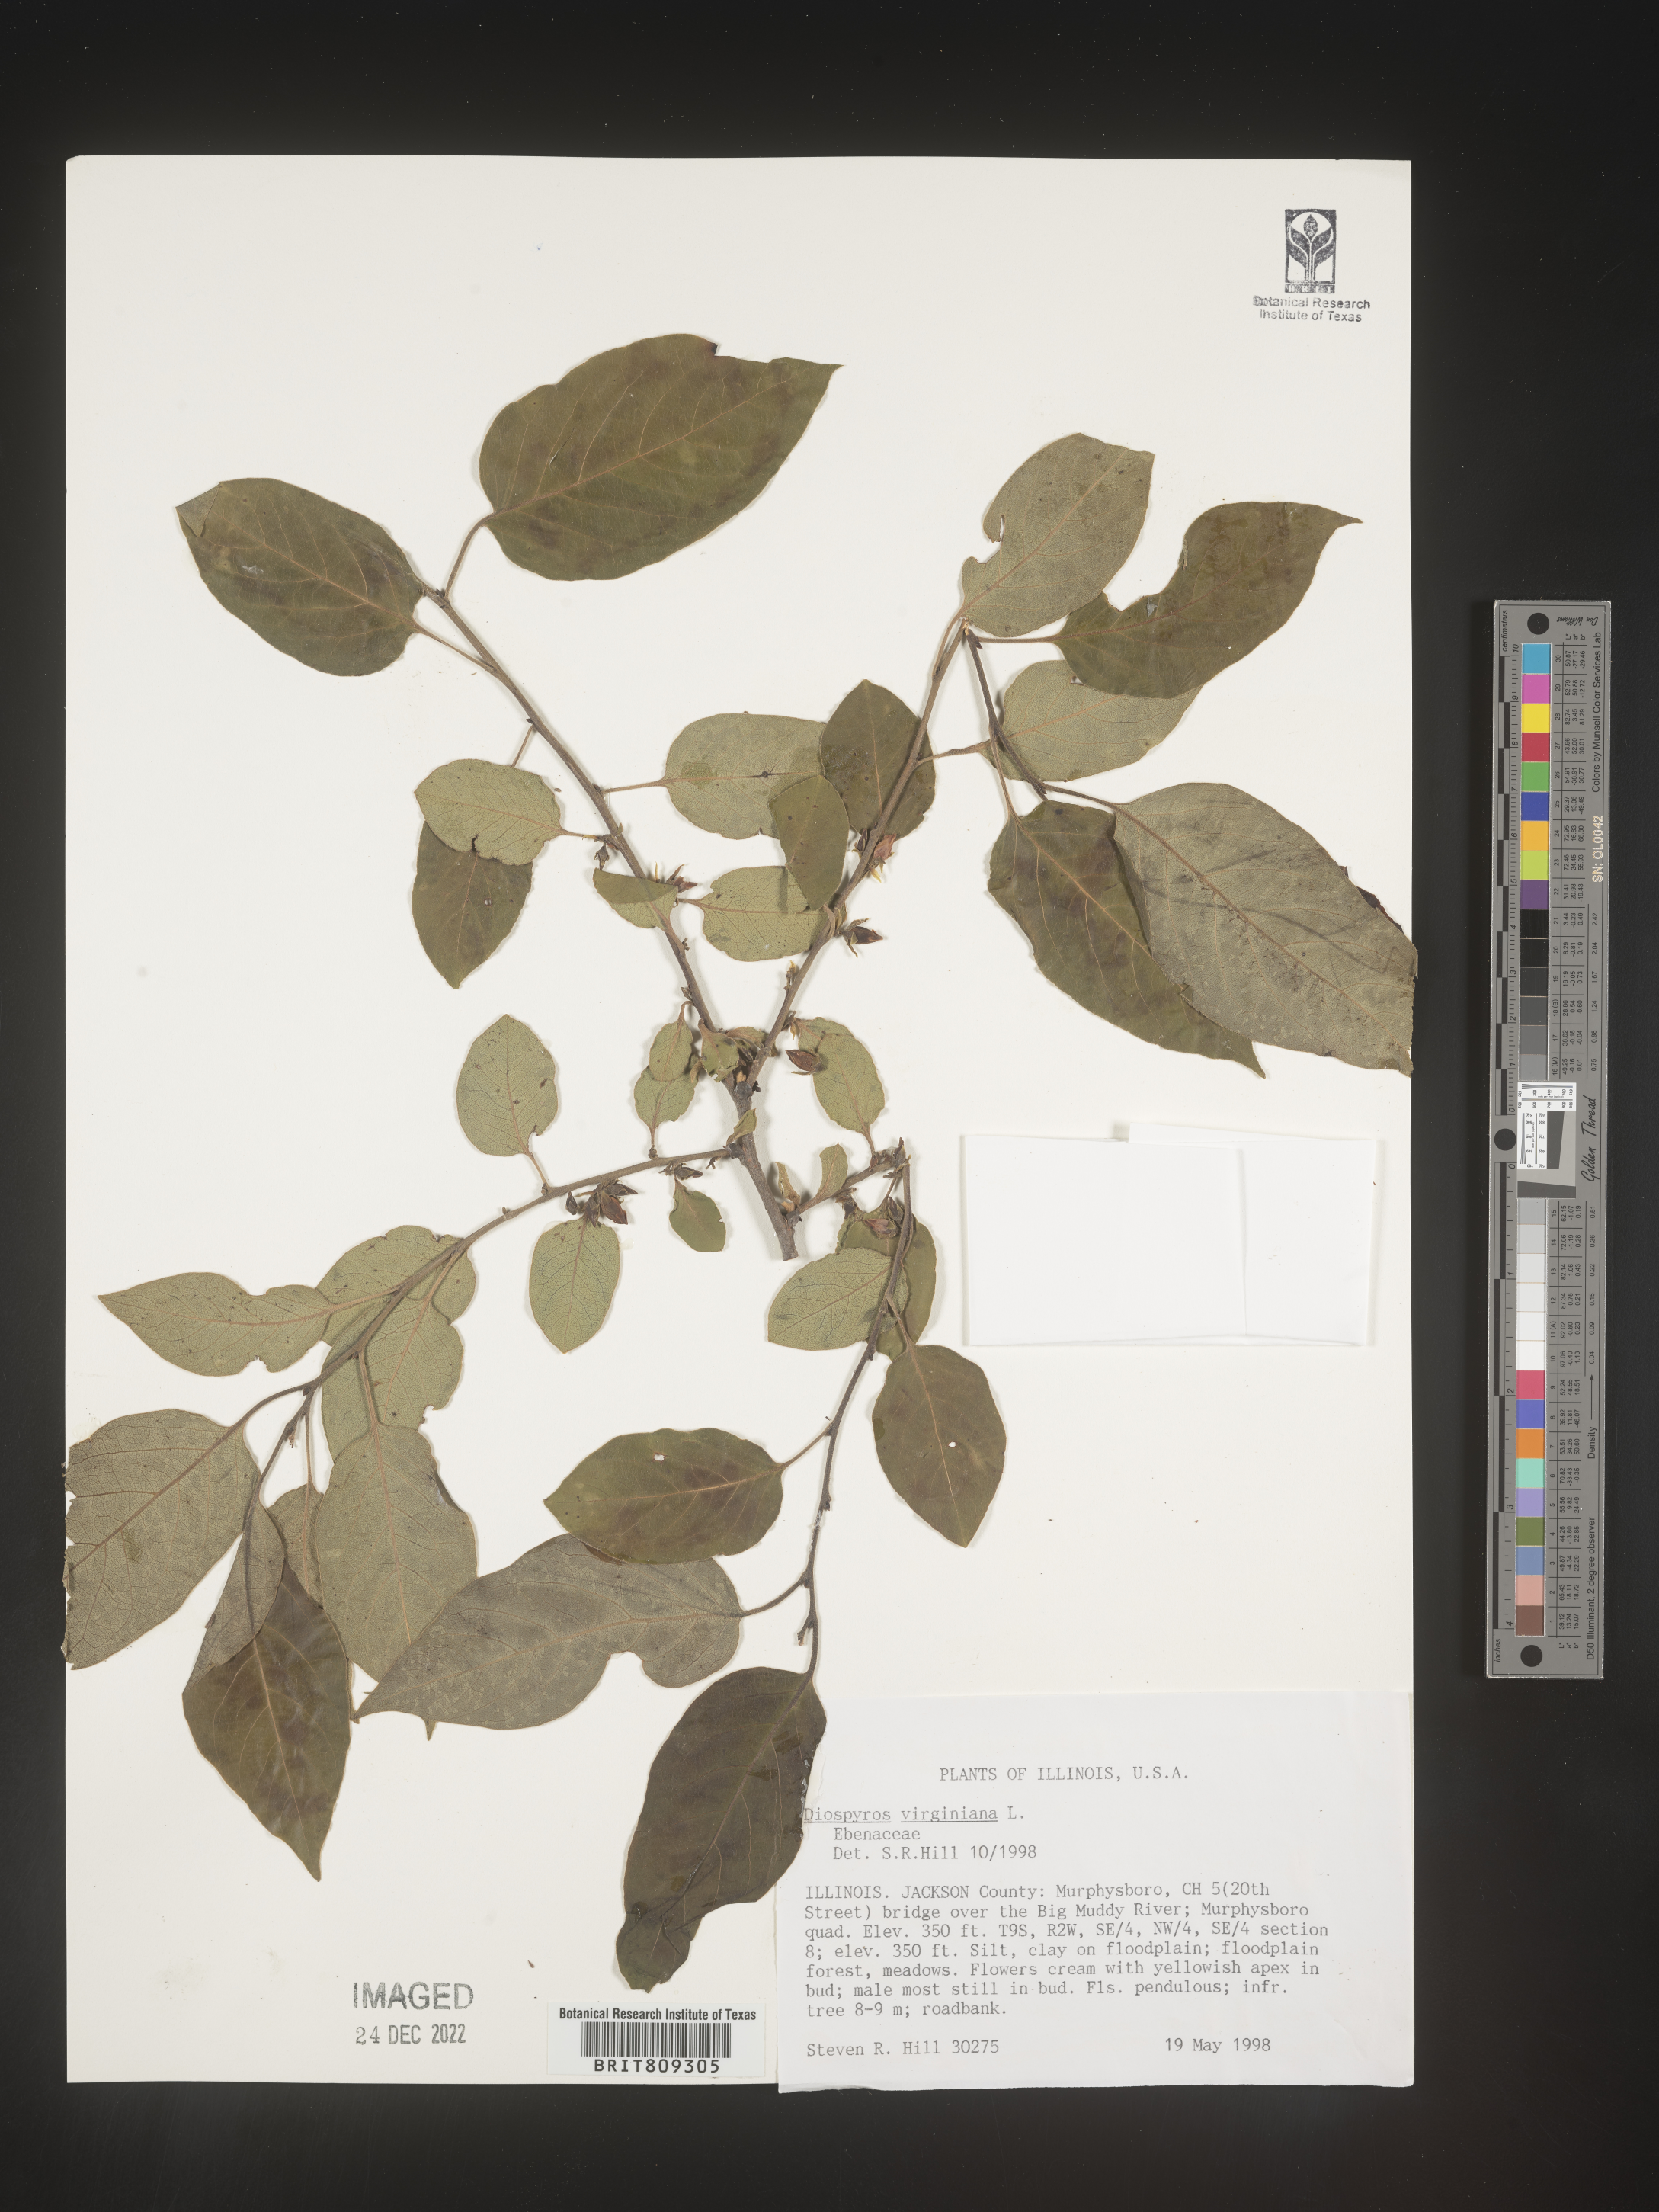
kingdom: Plantae
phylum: Tracheophyta
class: Magnoliopsida
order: Ericales
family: Ebenaceae
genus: Diospyros
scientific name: Diospyros virginiana
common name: Persimmon
